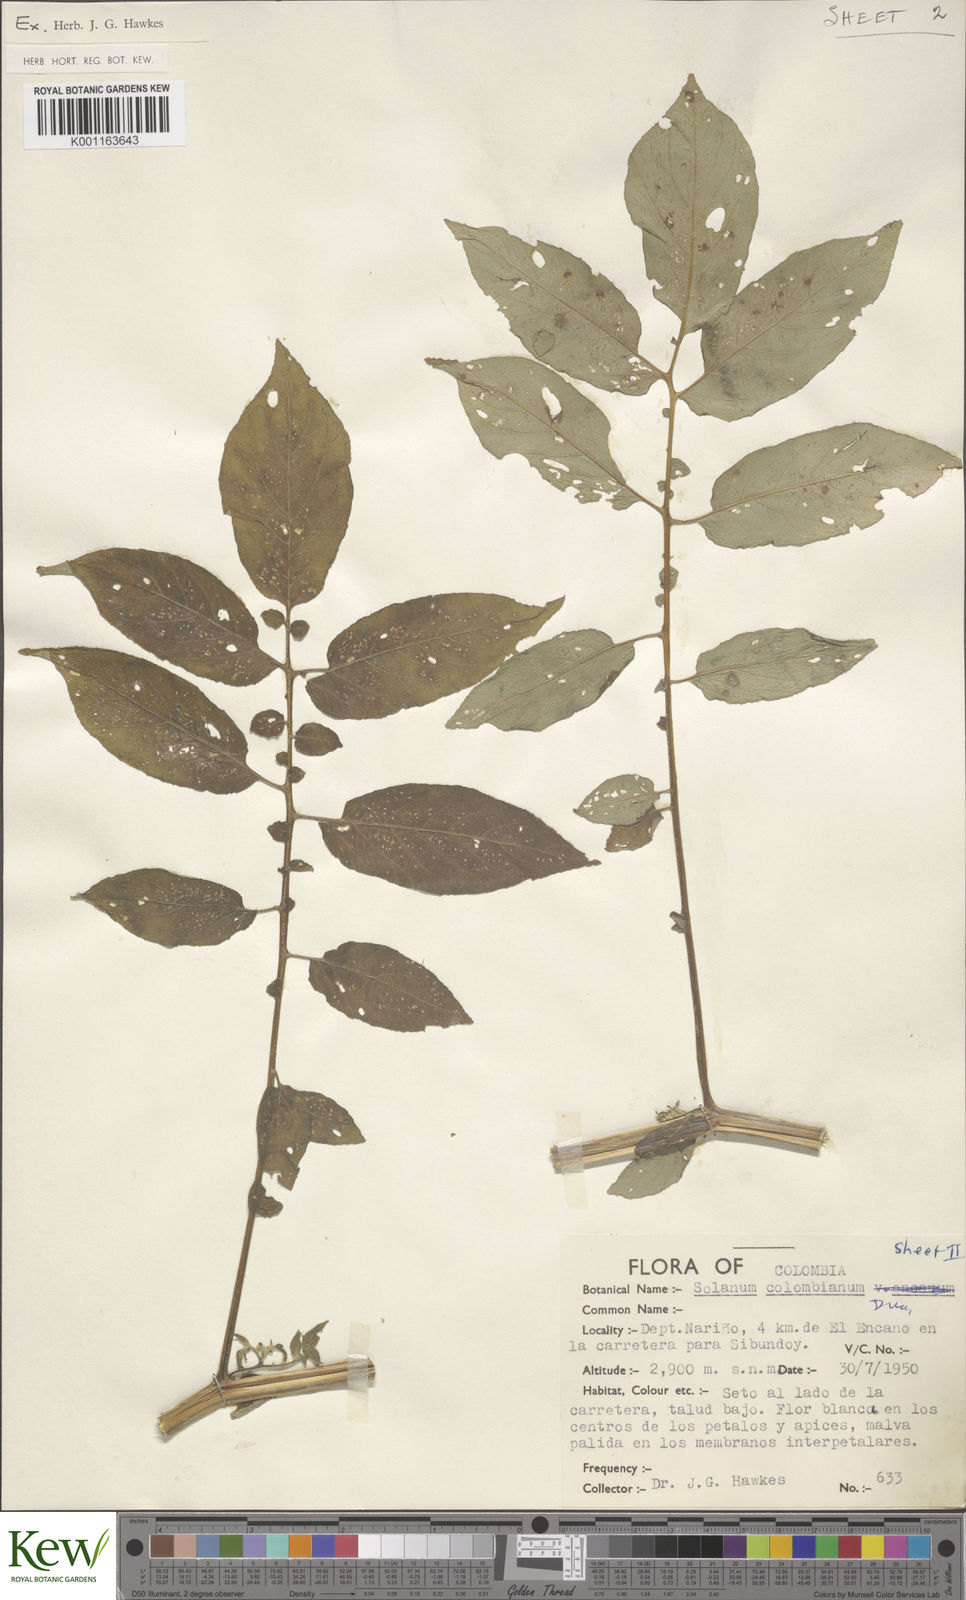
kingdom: Plantae
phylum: Tracheophyta
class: Magnoliopsida
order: Solanales
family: Solanaceae
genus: Solanum
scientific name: Solanum colombianum
